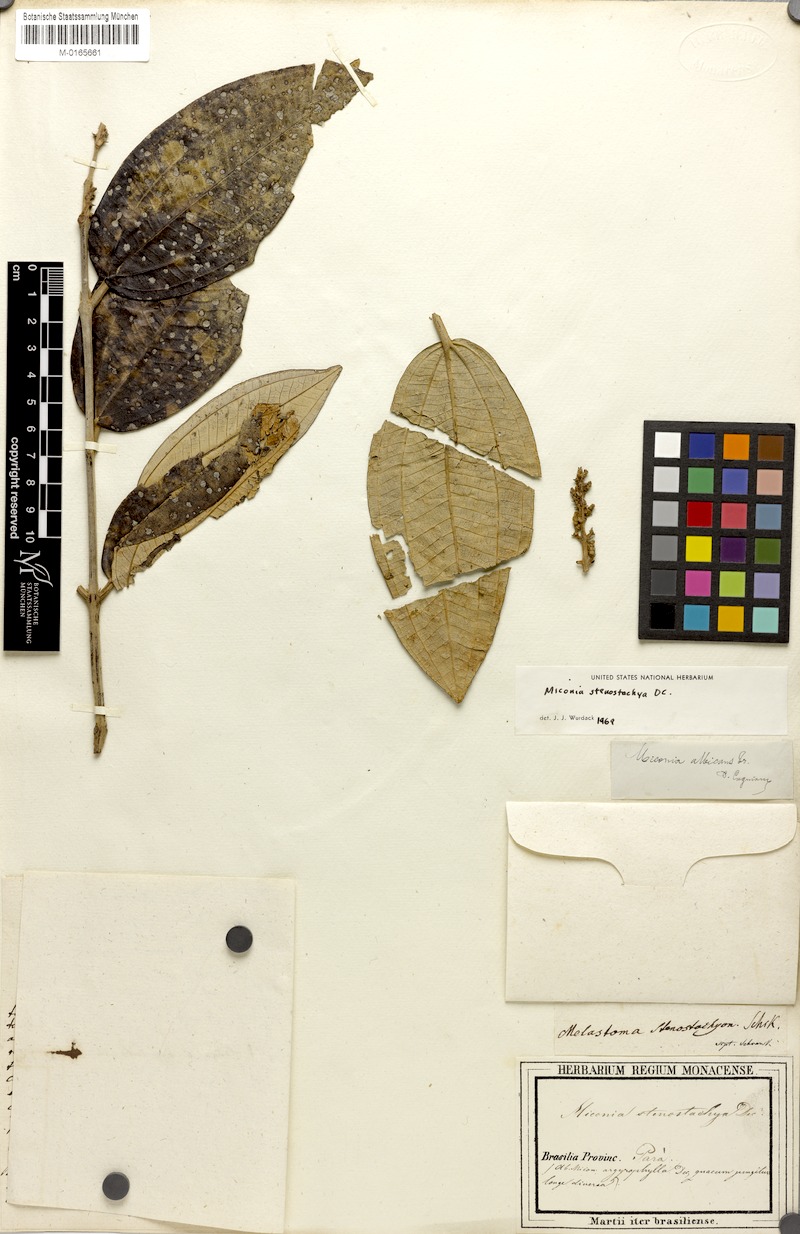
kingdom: Plantae
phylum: Tracheophyta
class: Magnoliopsida
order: Myrtales
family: Melastomataceae
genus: Miconia
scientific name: Miconia stenostachya
